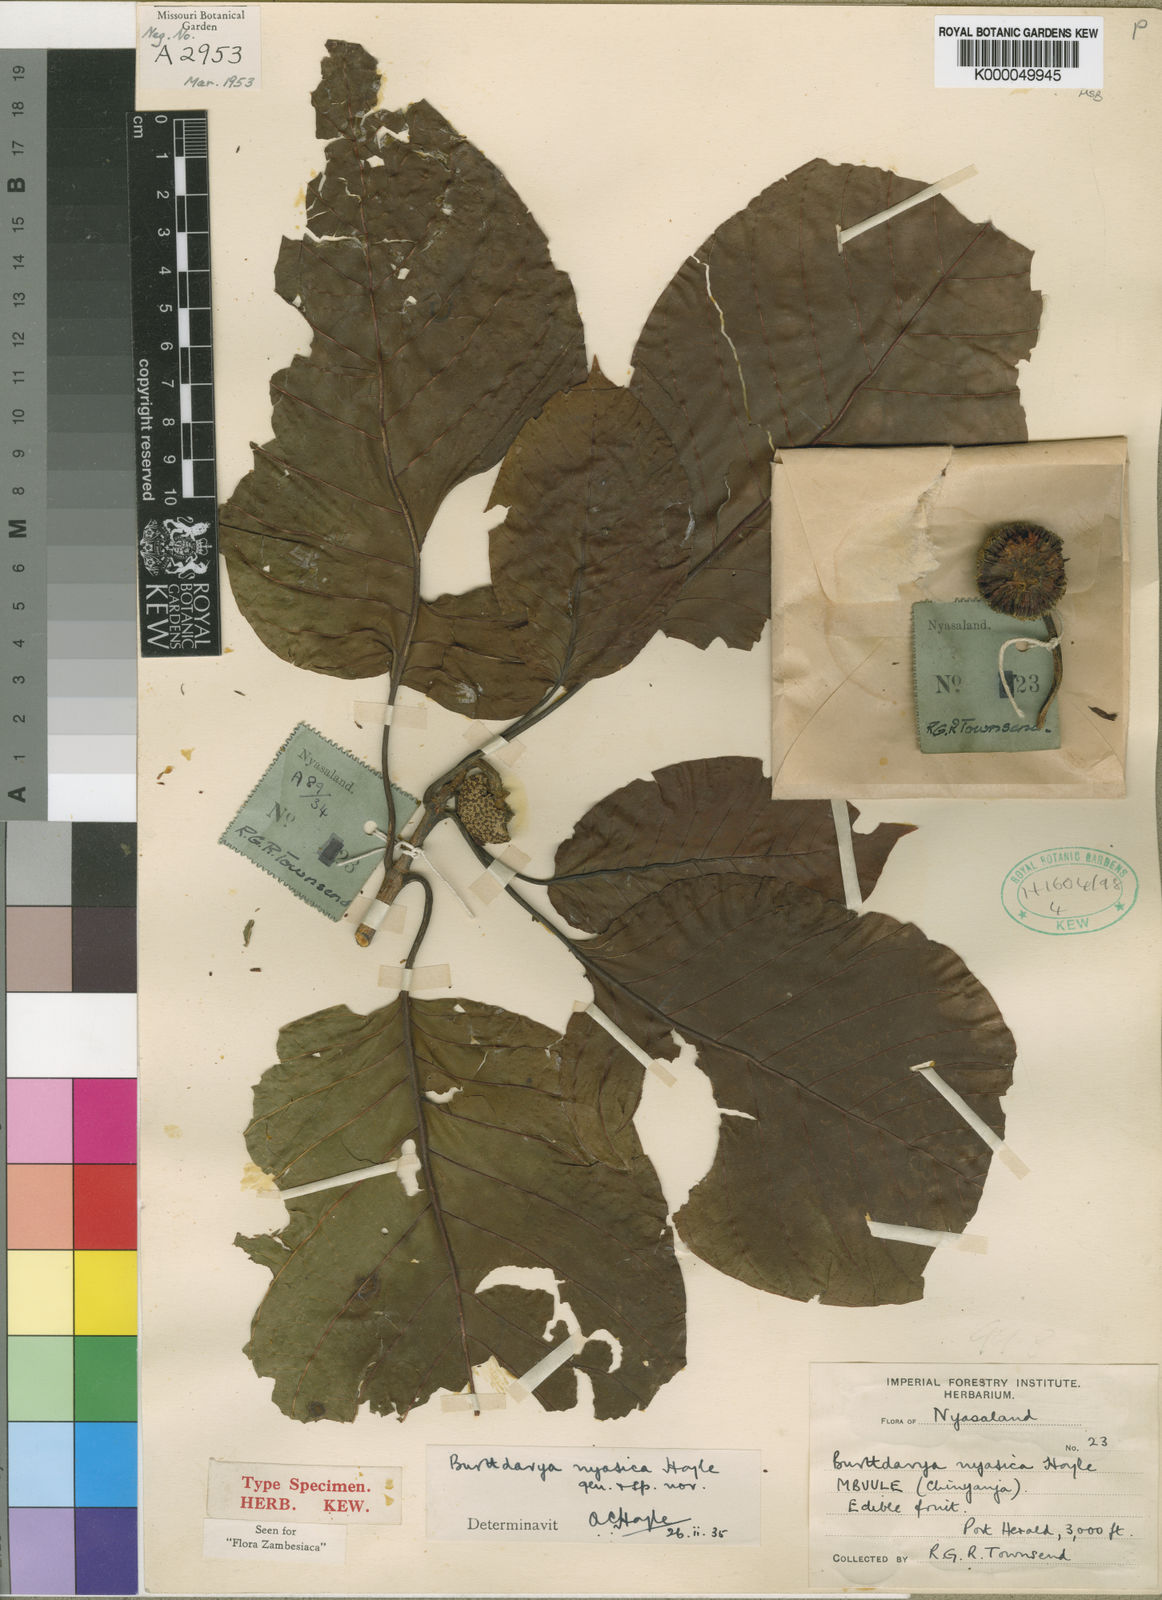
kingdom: Plantae
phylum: Tracheophyta
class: Magnoliopsida
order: Gentianales
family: Rubiaceae
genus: Nauclea
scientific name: Nauclea
